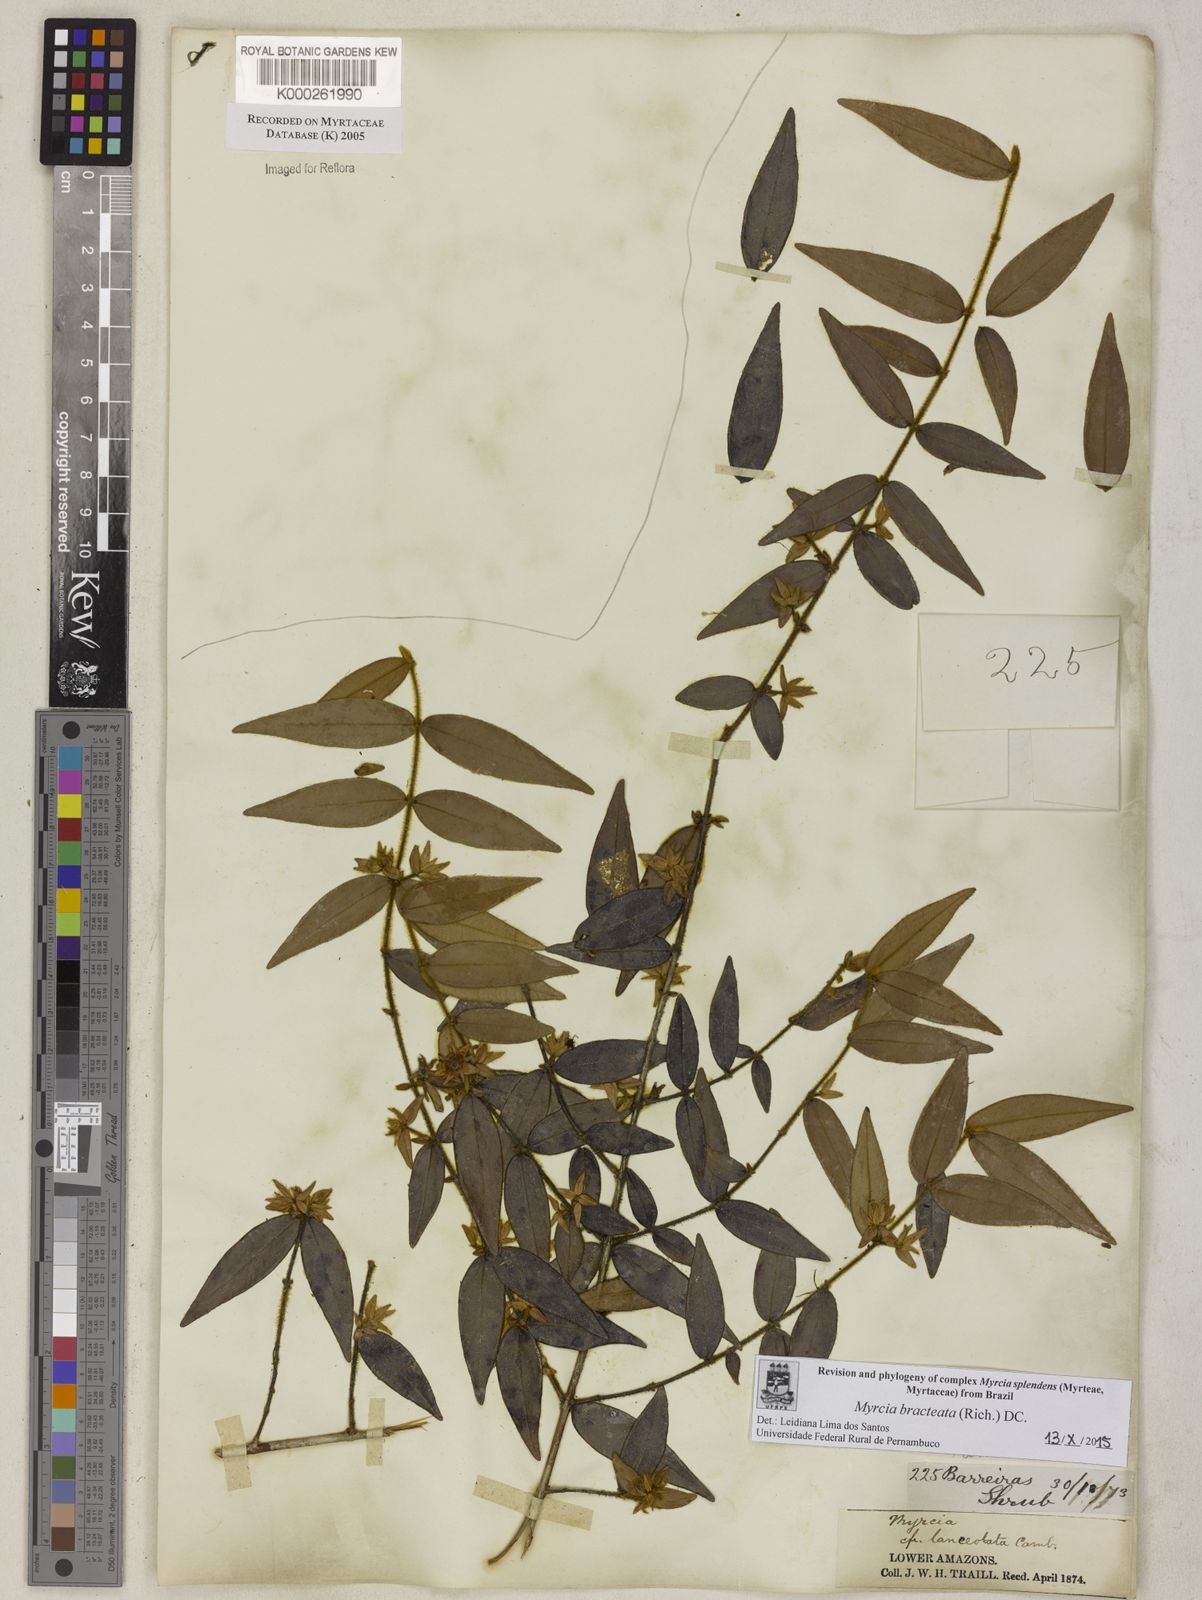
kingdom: Plantae
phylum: Tracheophyta
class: Magnoliopsida
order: Myrtales
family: Myrtaceae
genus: Myrcia
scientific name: Myrcia bracteata
